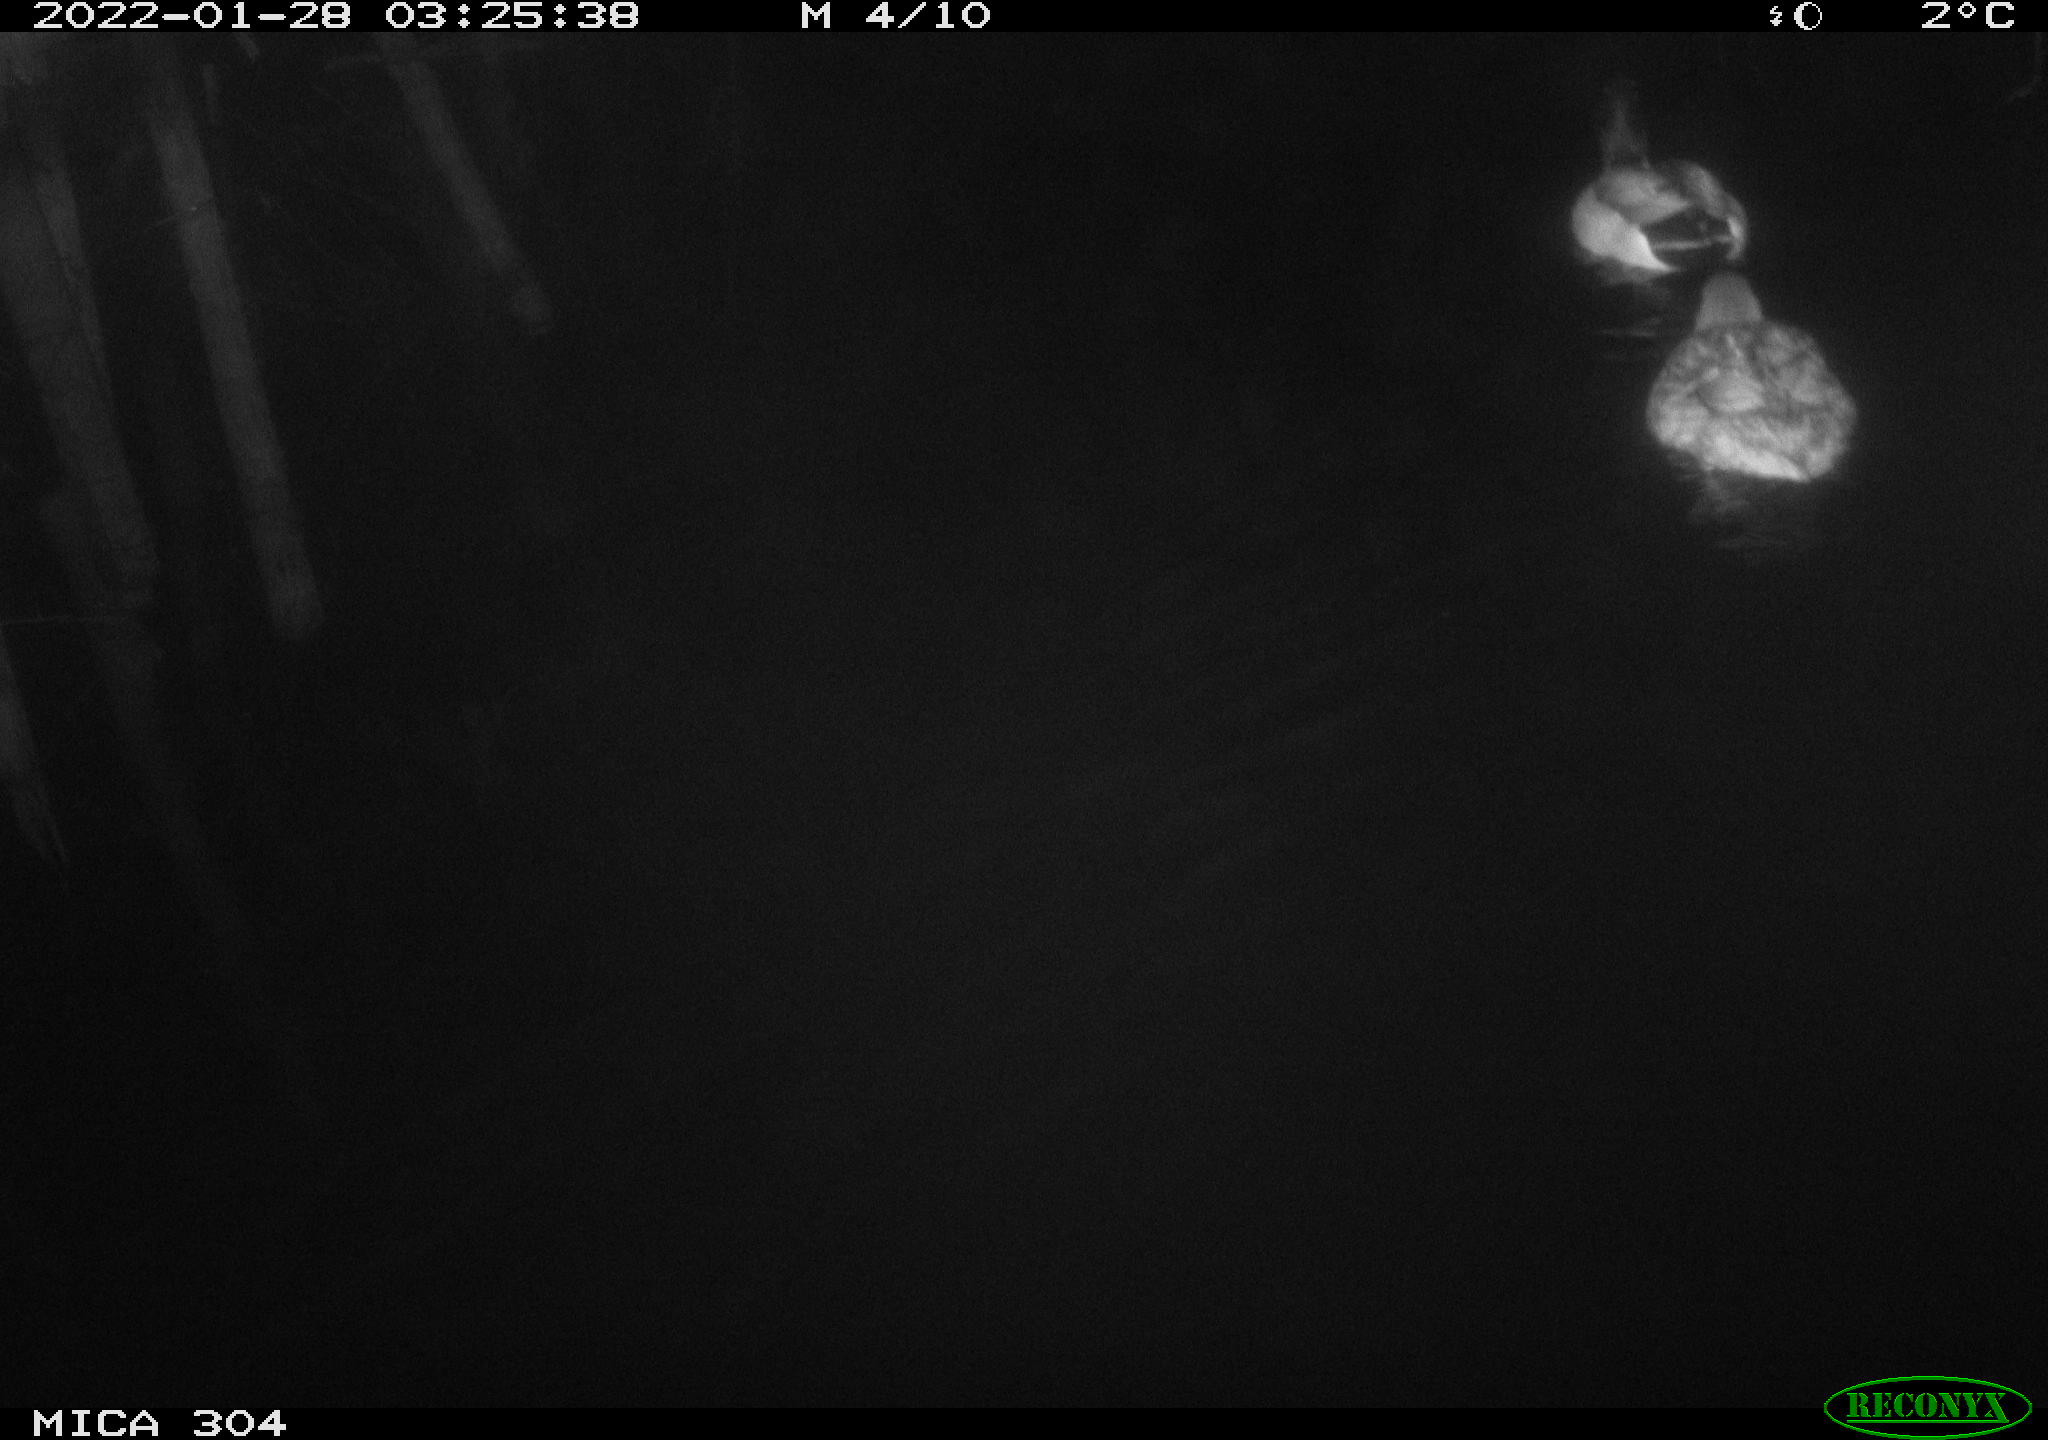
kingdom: Animalia
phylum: Chordata
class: Aves
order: Anseriformes
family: Anatidae
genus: Anas
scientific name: Anas
